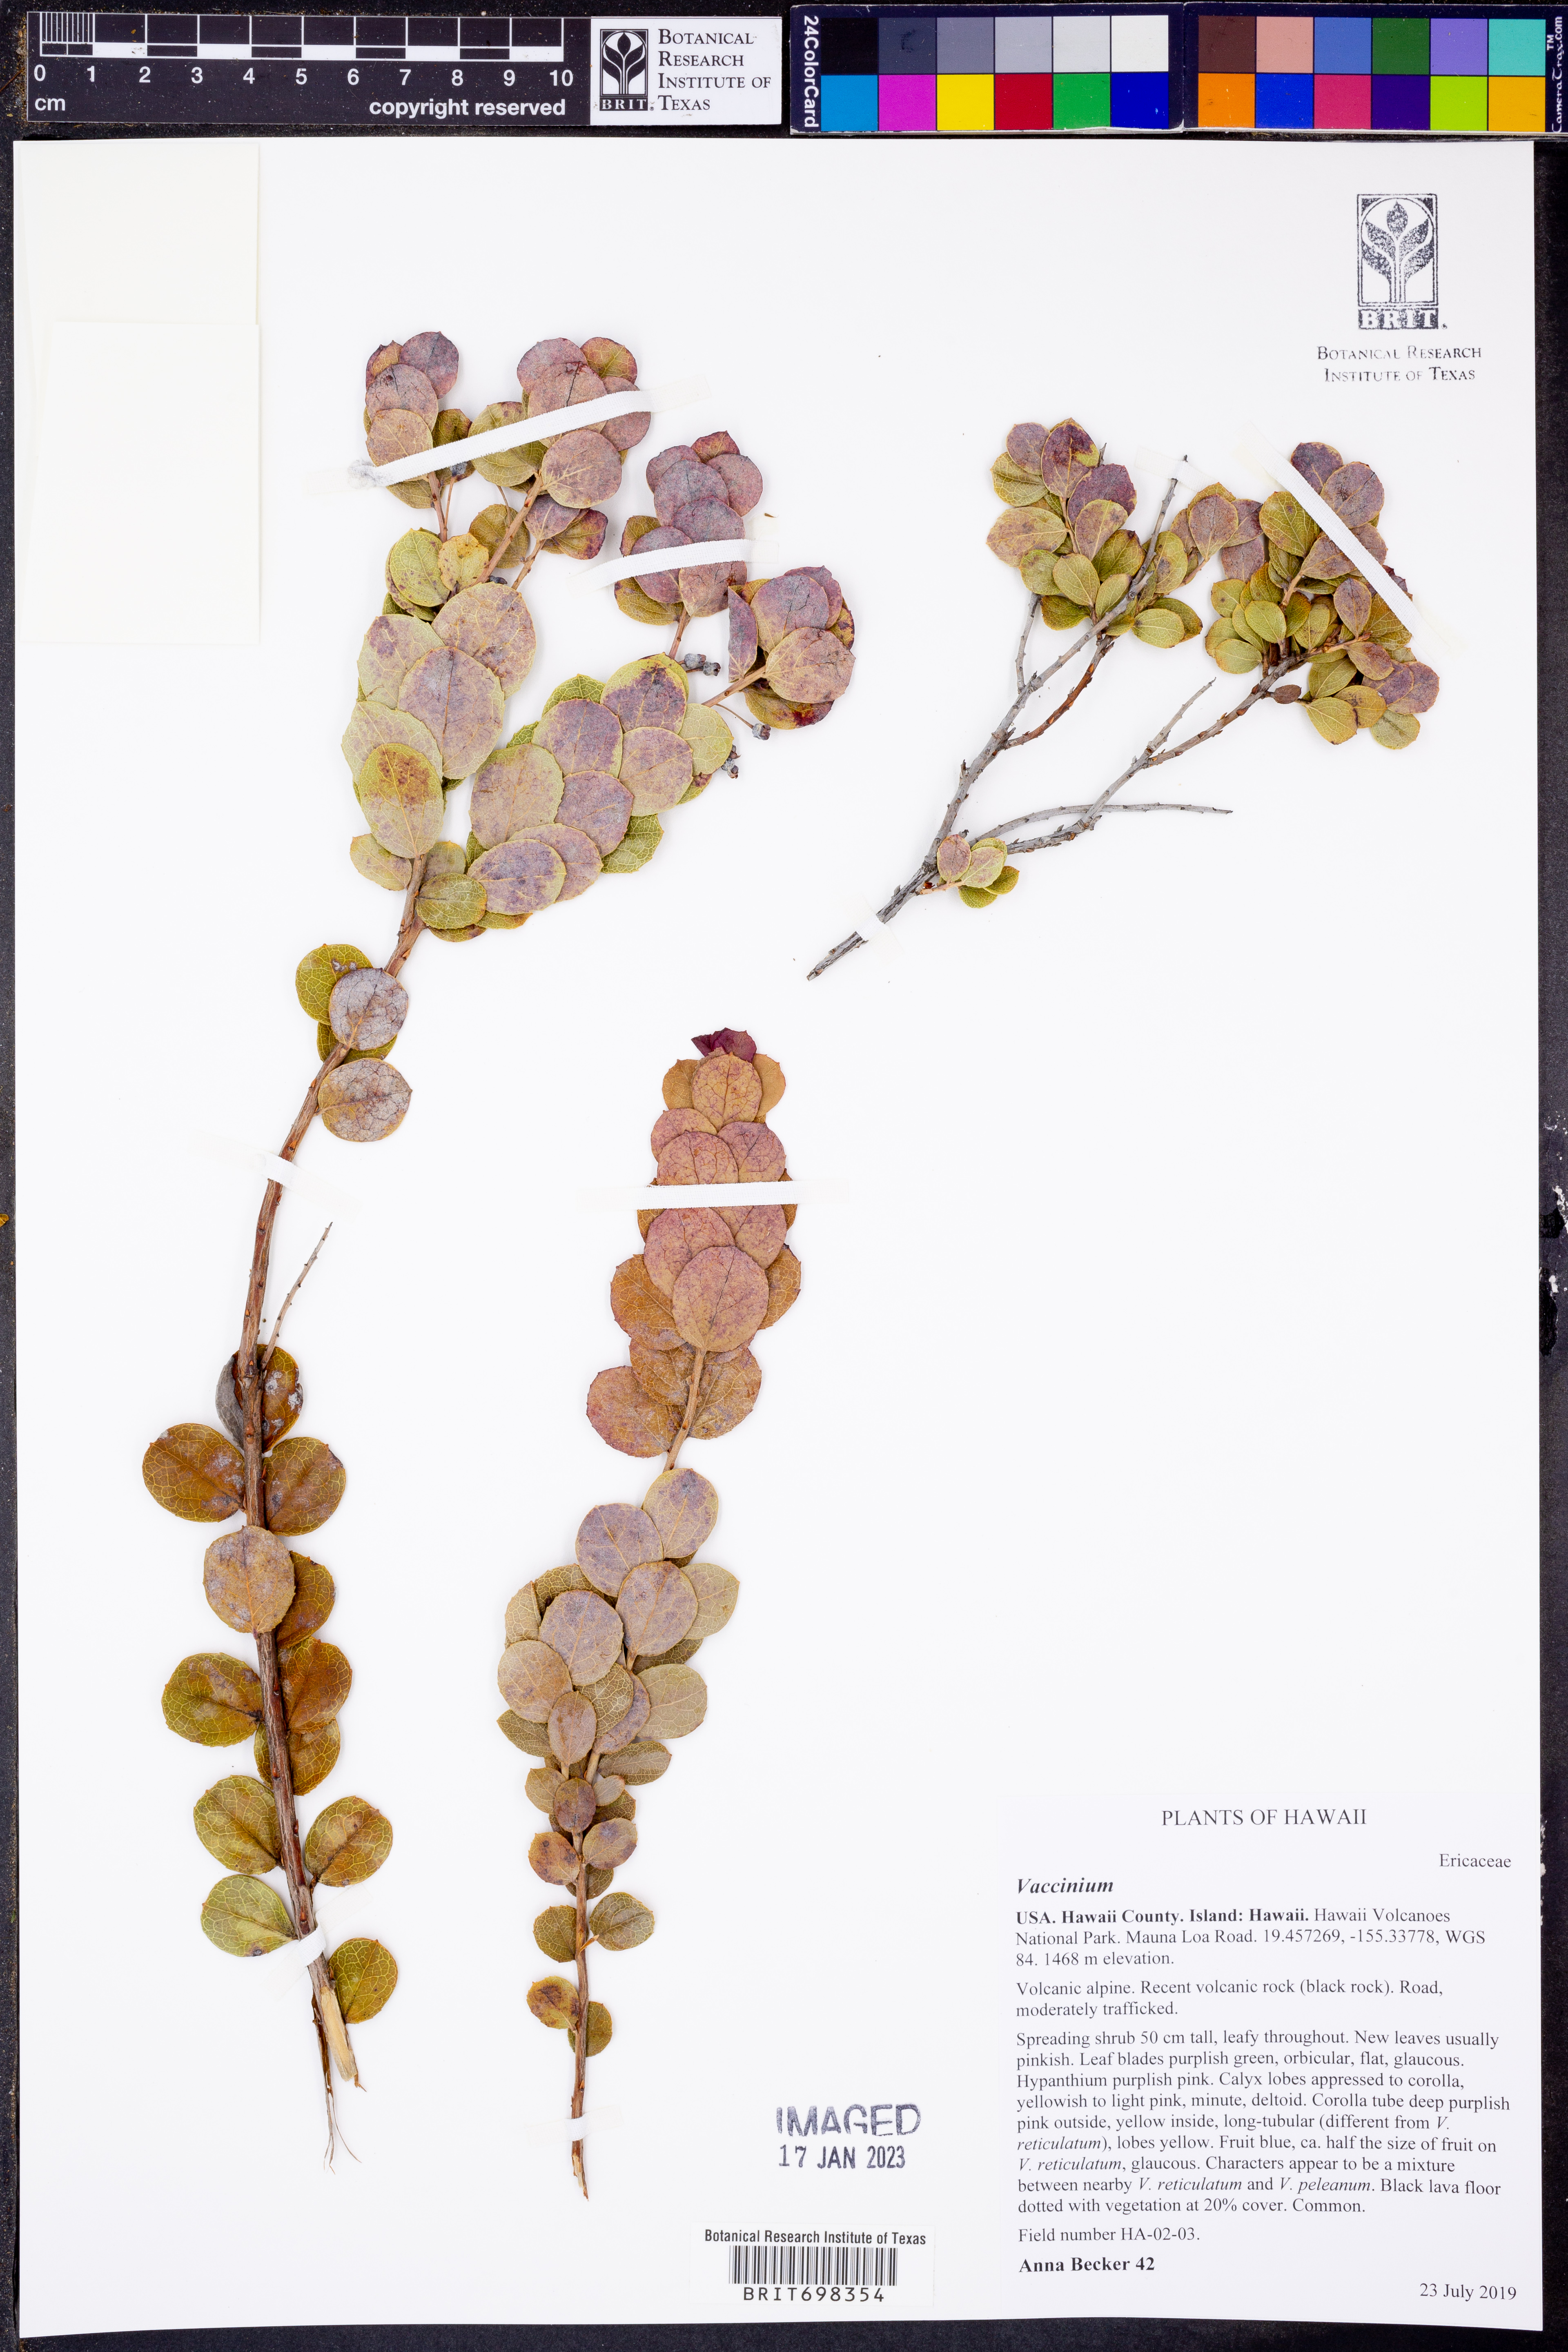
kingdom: Plantae
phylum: Tracheophyta
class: Magnoliopsida
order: Ericales
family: Ericaceae
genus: Vaccinium
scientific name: Vaccinium
